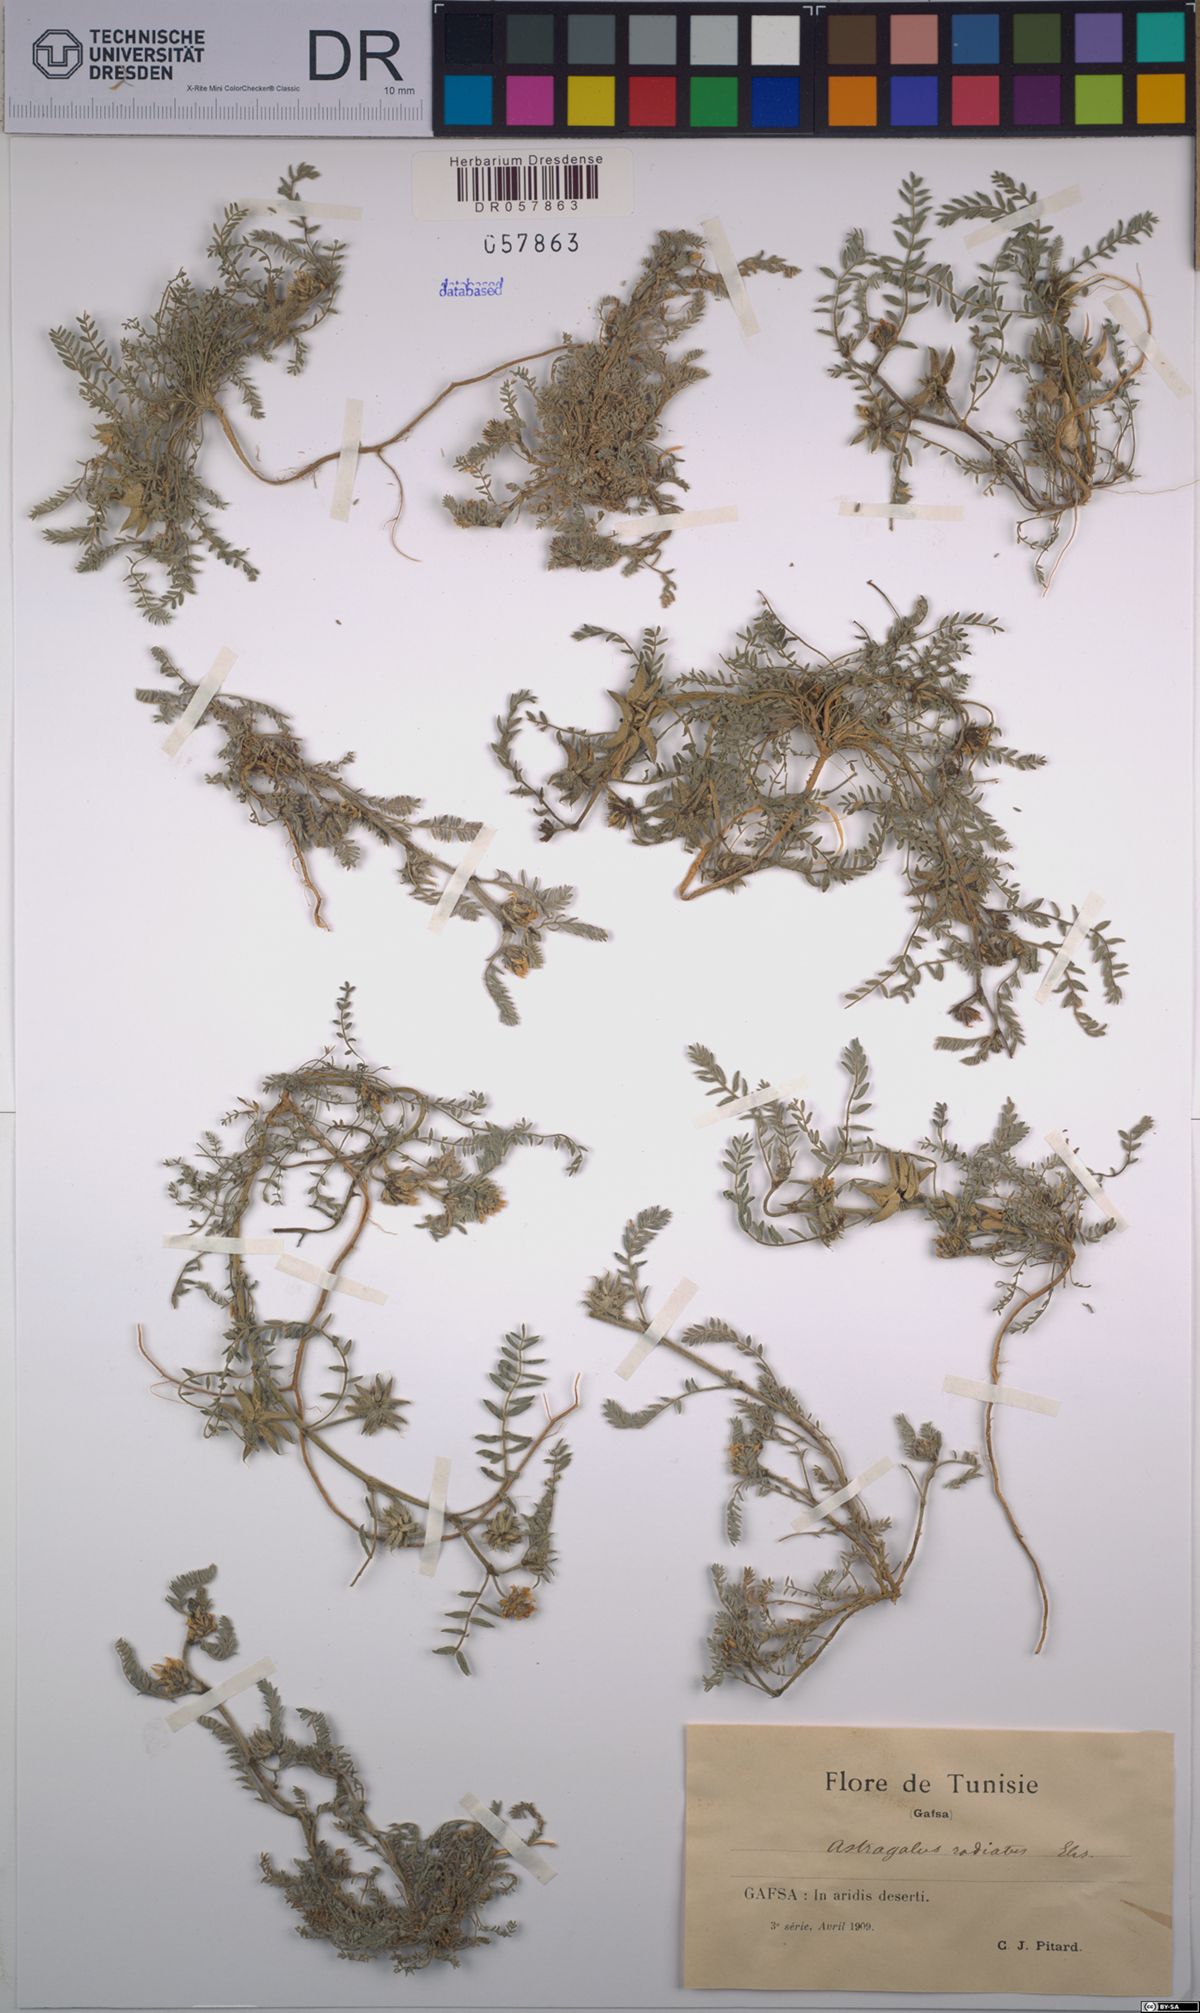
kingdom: Plantae
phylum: Tracheophyta
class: Magnoliopsida
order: Fabales
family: Fabaceae
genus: Astragalus
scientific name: Astragalus stella
